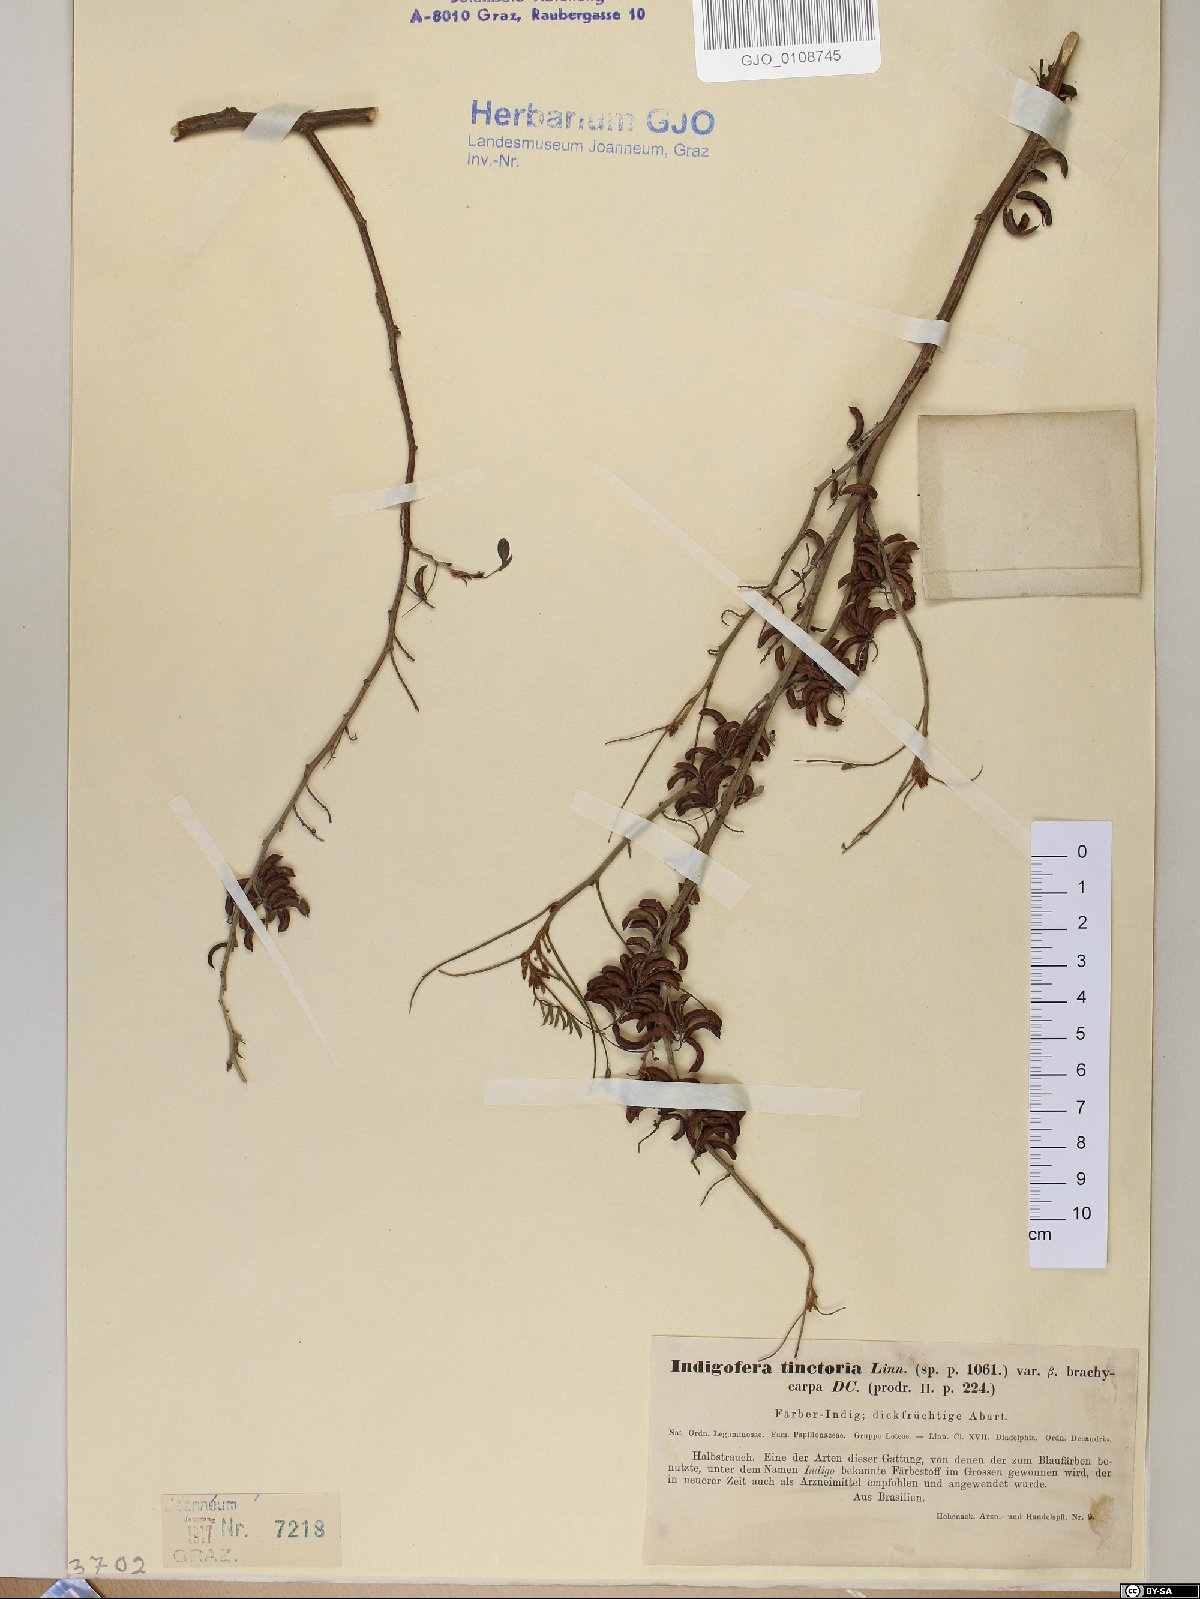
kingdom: Plantae
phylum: Tracheophyta
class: Magnoliopsida
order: Fabales
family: Fabaceae
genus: Indigofera
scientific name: Indigofera tinctoria
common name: True indigo
